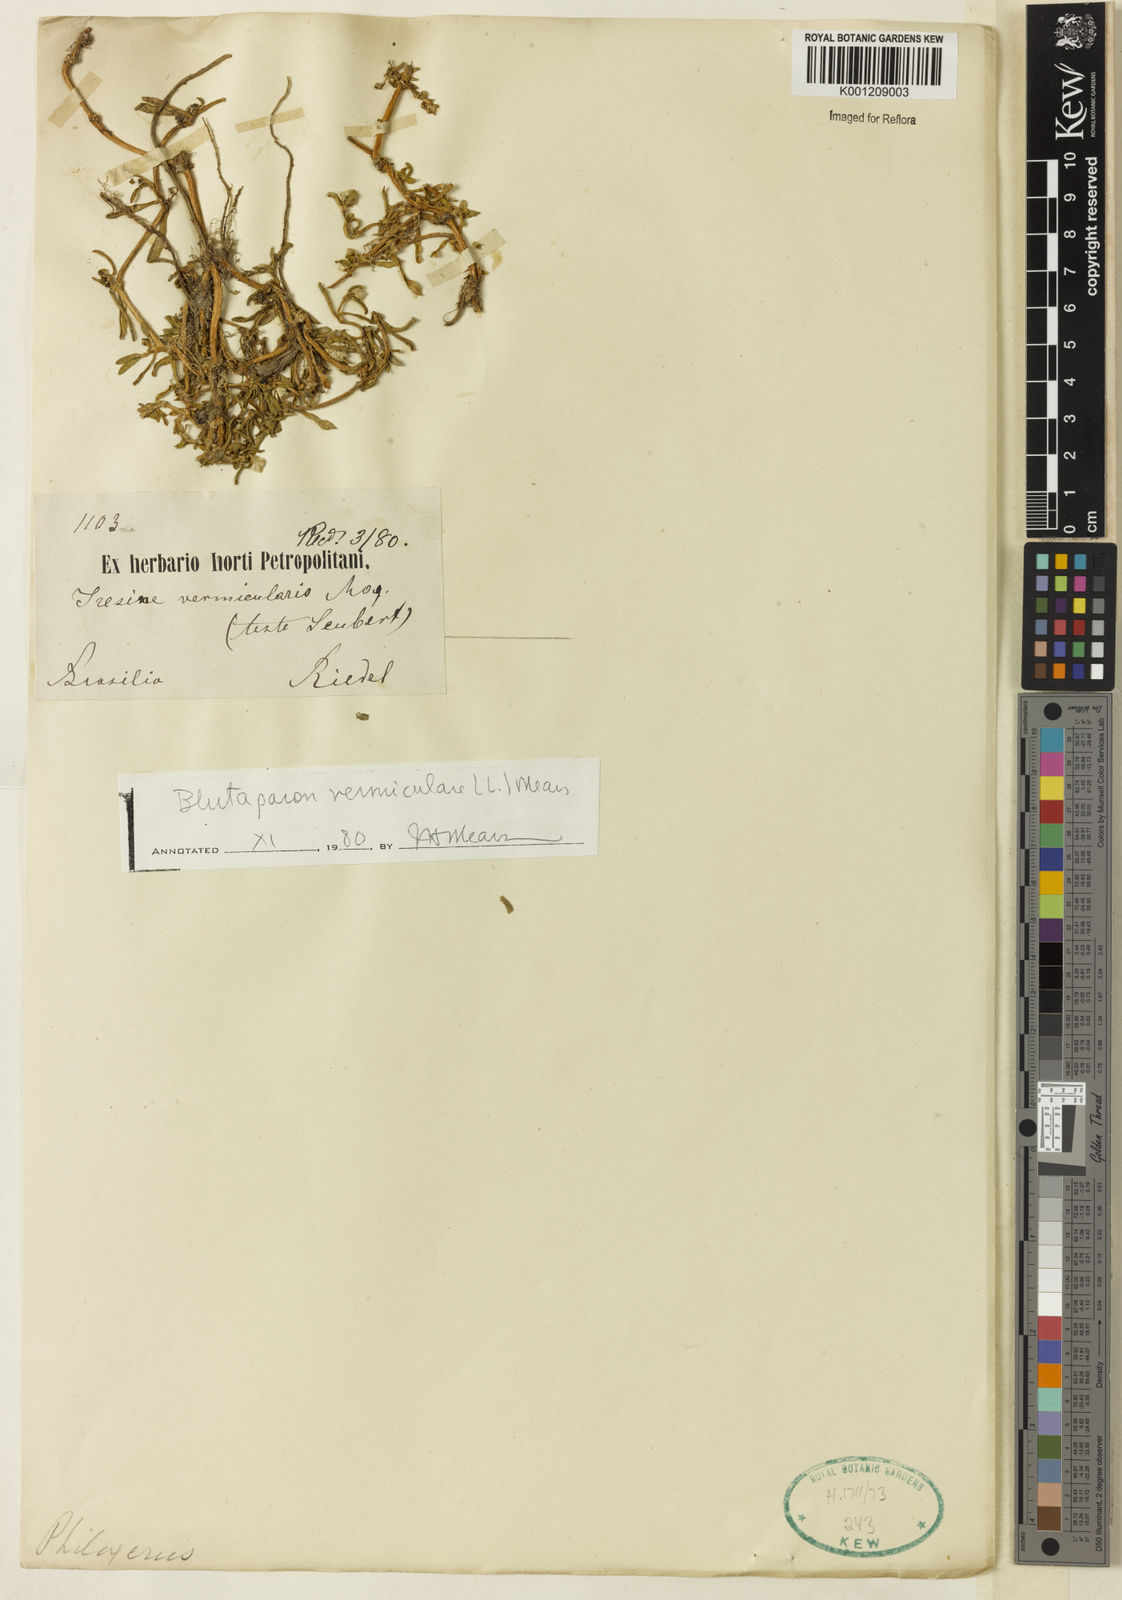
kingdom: Plantae
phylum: Tracheophyta
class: Magnoliopsida
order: Caryophyllales
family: Amaranthaceae
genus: Gomphrena
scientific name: Gomphrena vermicularis
